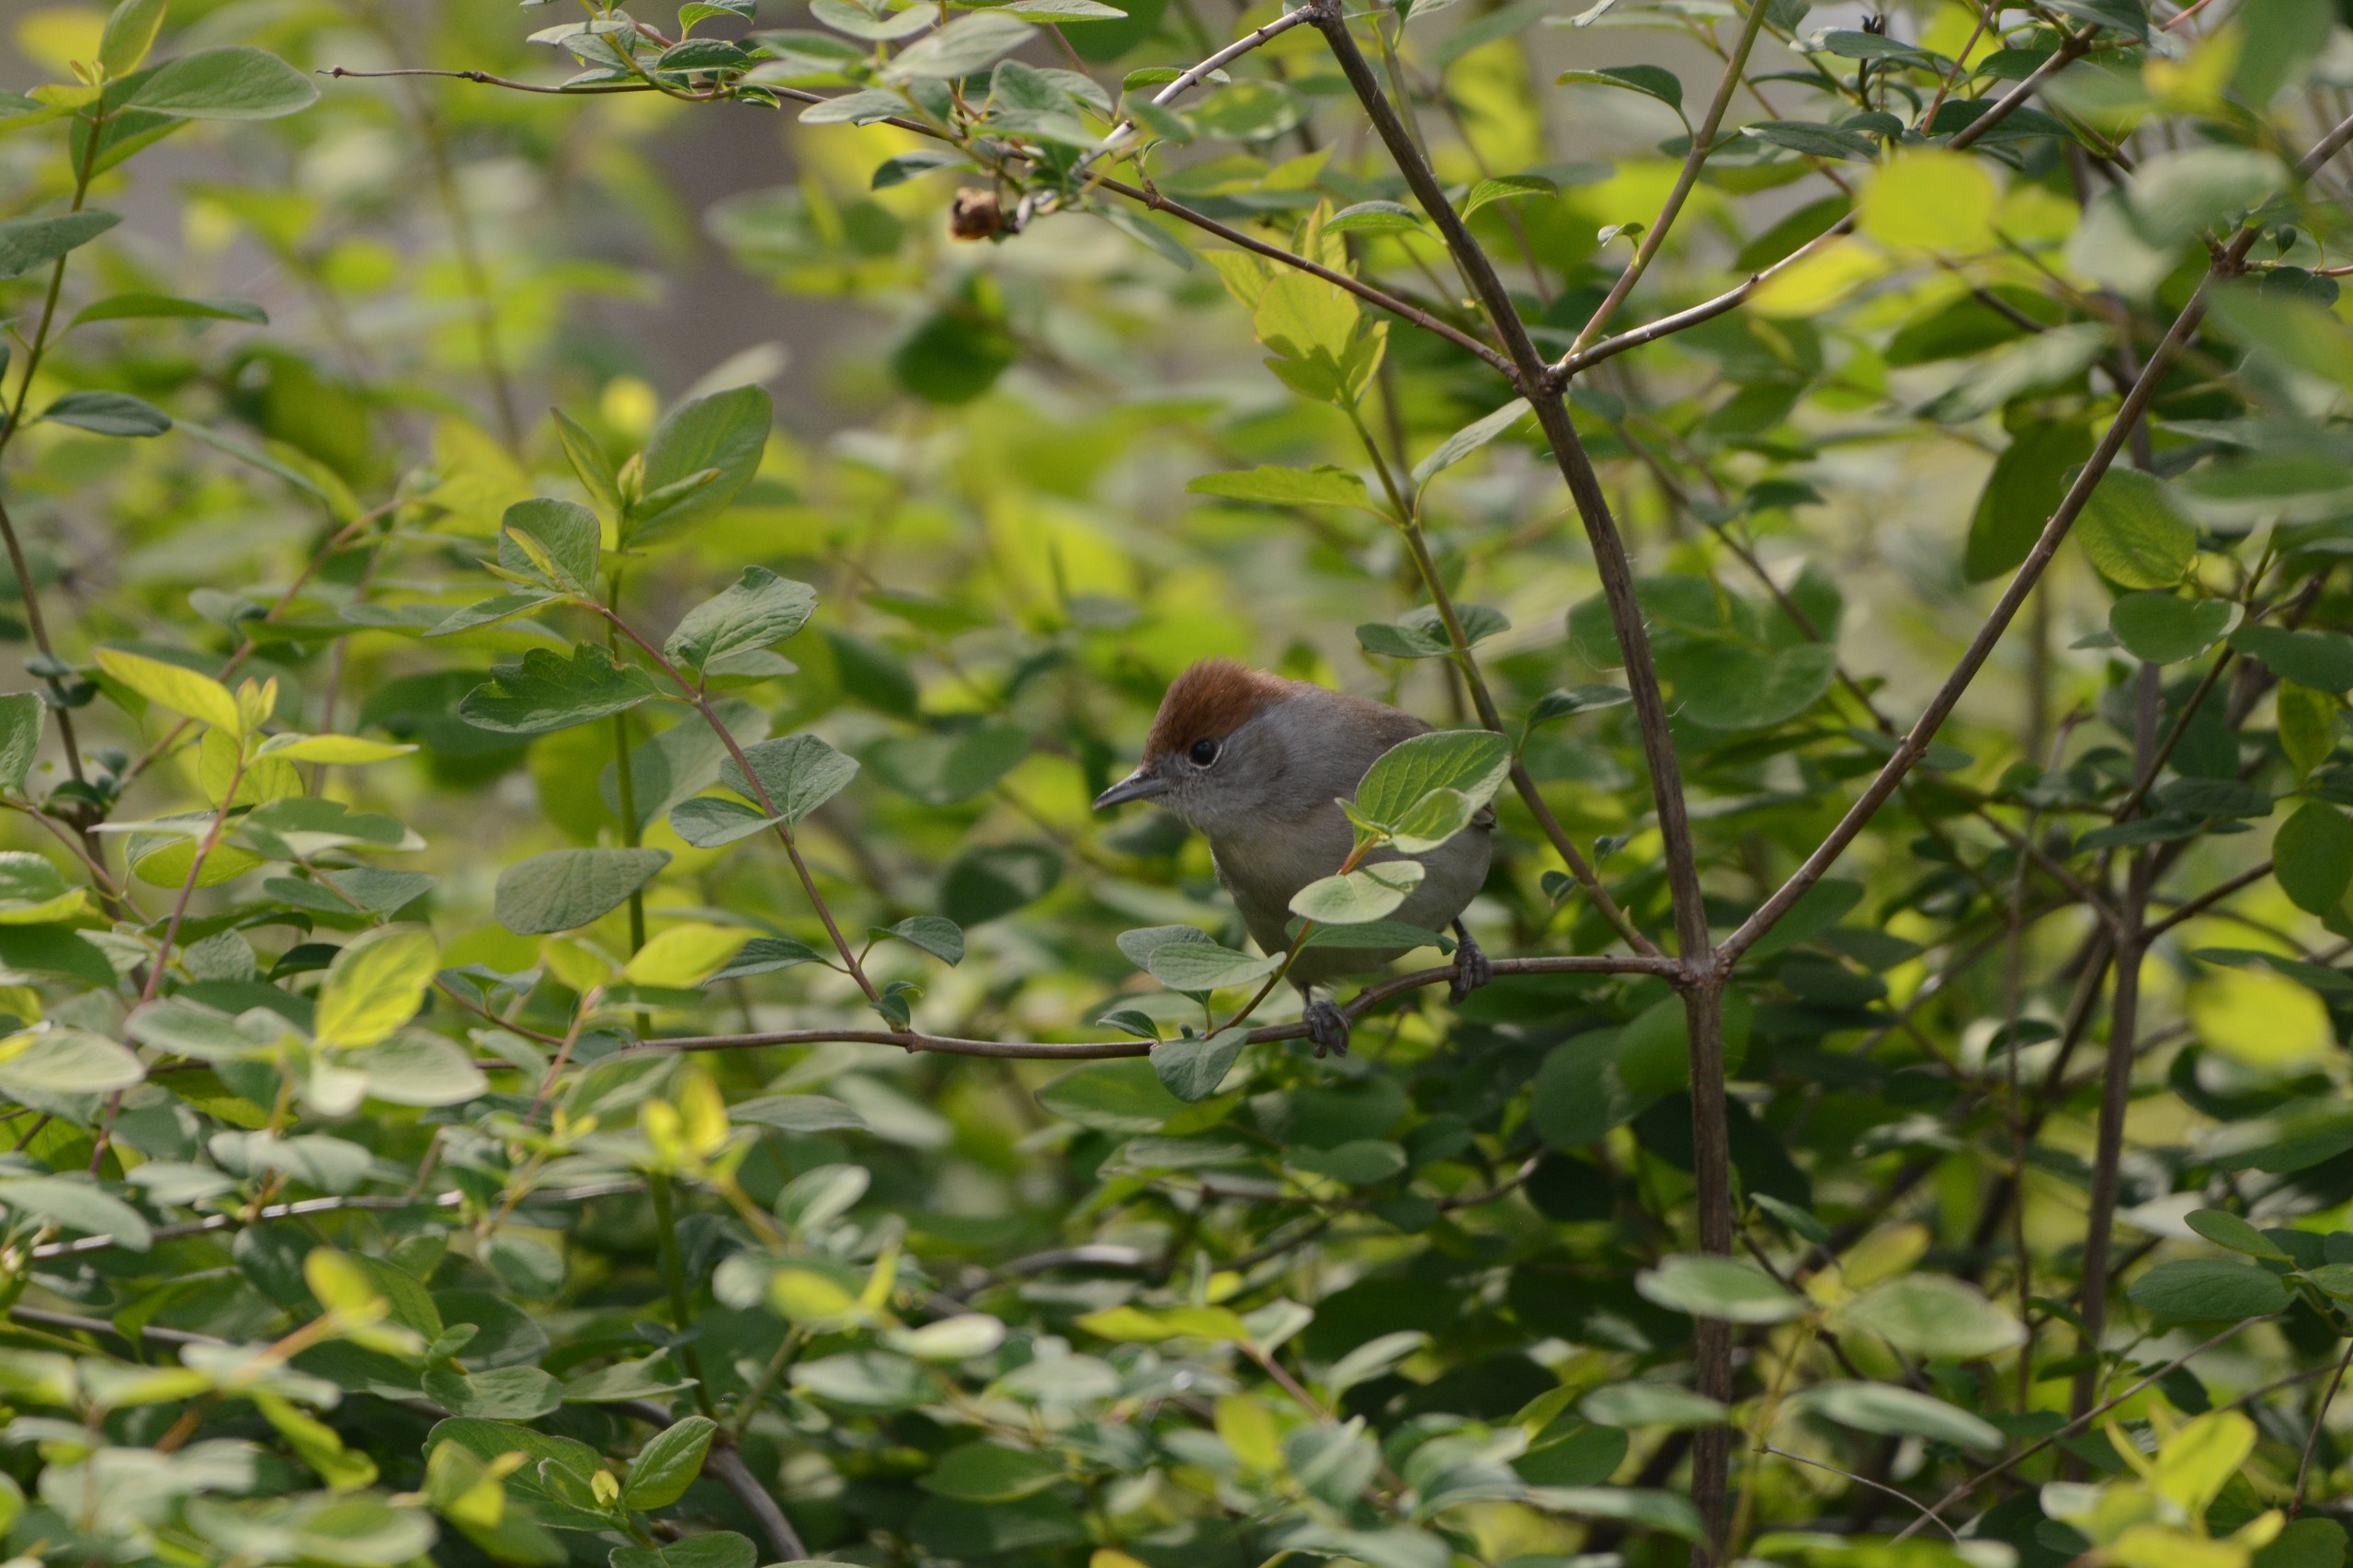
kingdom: Animalia
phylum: Chordata
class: Aves
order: Passeriformes
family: Sylviidae
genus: Sylvia
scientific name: Sylvia atricapilla
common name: Munk
